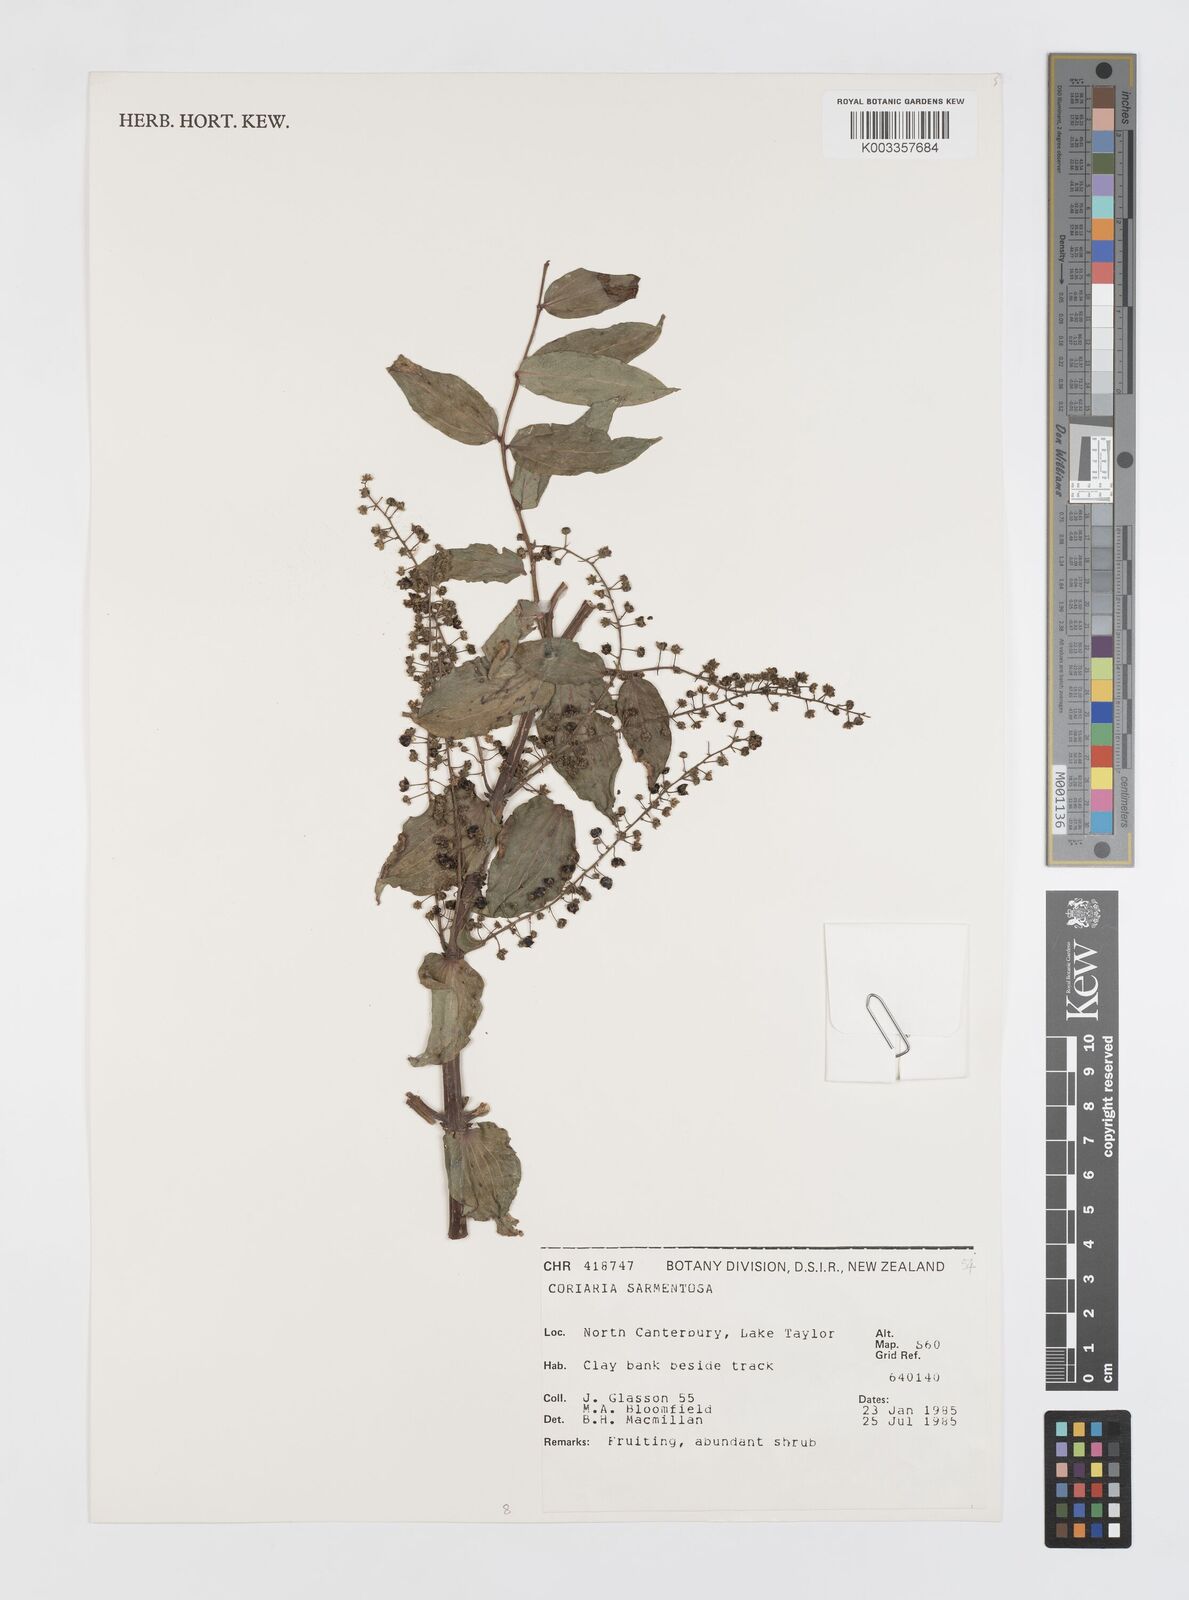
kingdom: Plantae
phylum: Tracheophyta
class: Magnoliopsida
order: Cucurbitales
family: Coriariaceae
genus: Coriaria
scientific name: Coriaria sarmentosa
